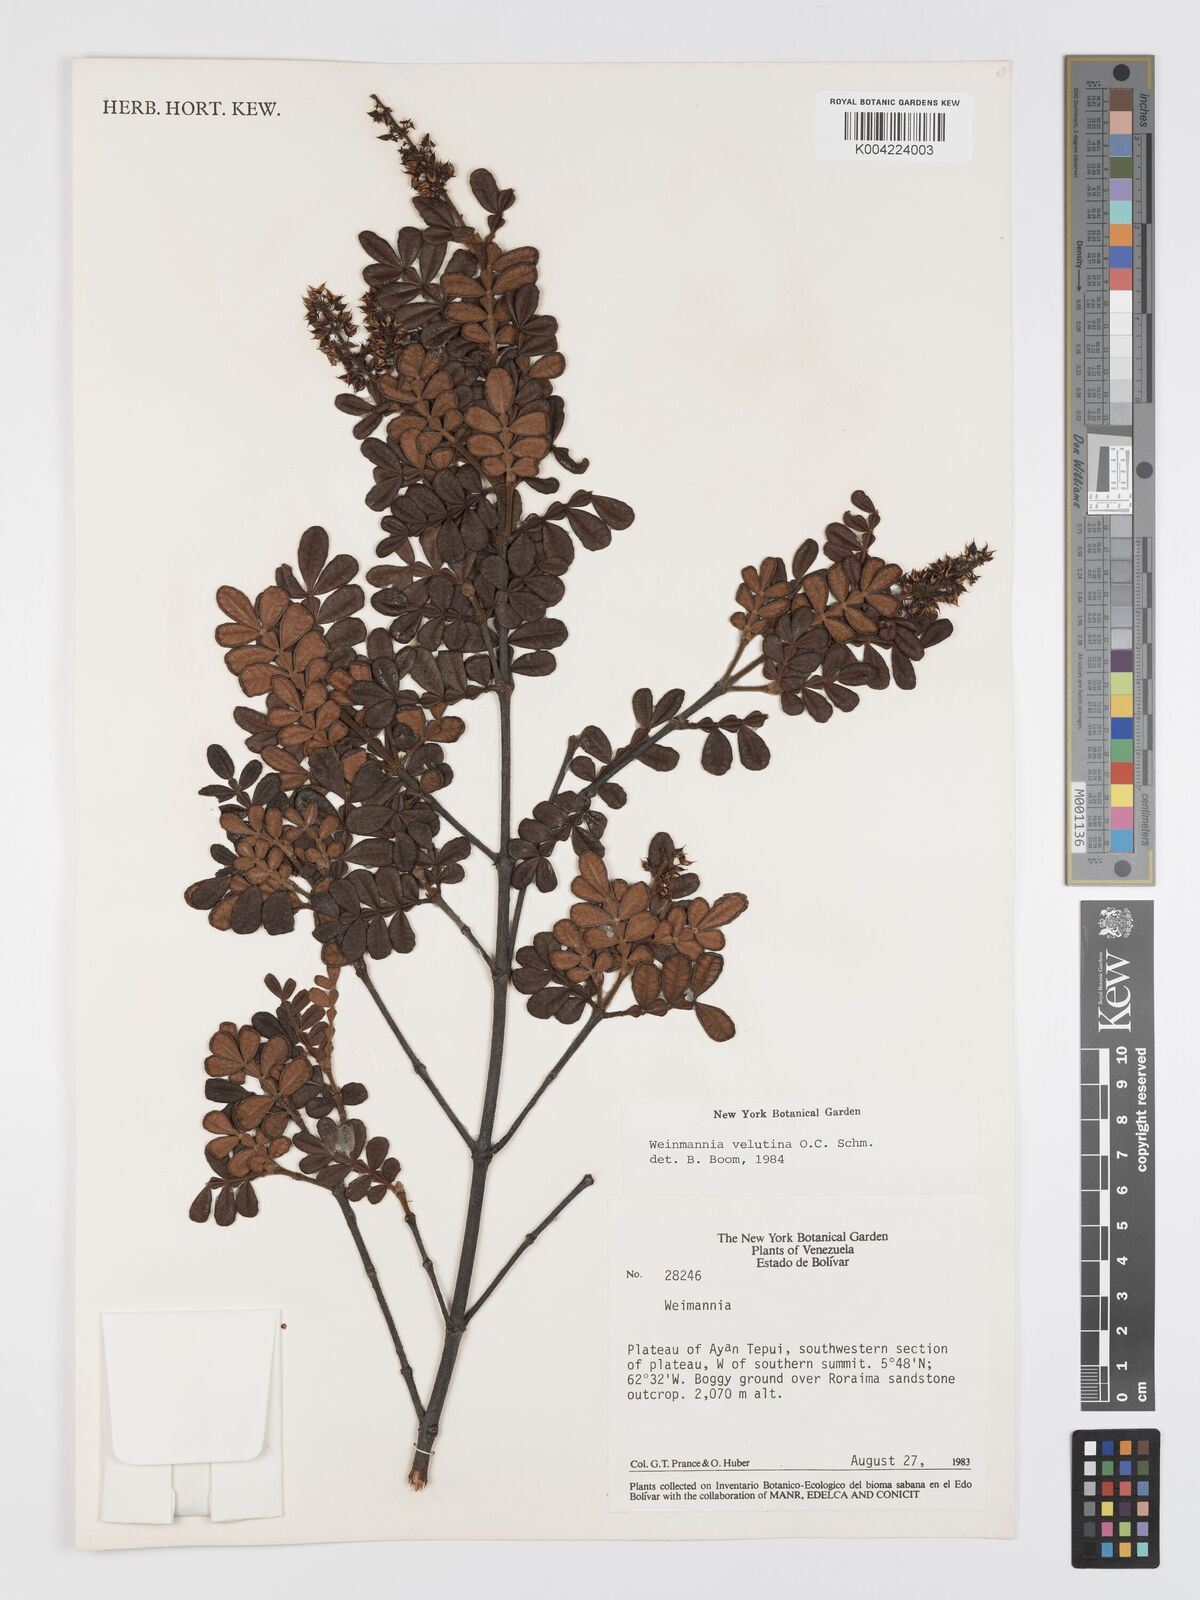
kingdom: Plantae
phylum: Tracheophyta
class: Magnoliopsida
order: Oxalidales
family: Cunoniaceae
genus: Weinmannia
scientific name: Weinmannia velutina
